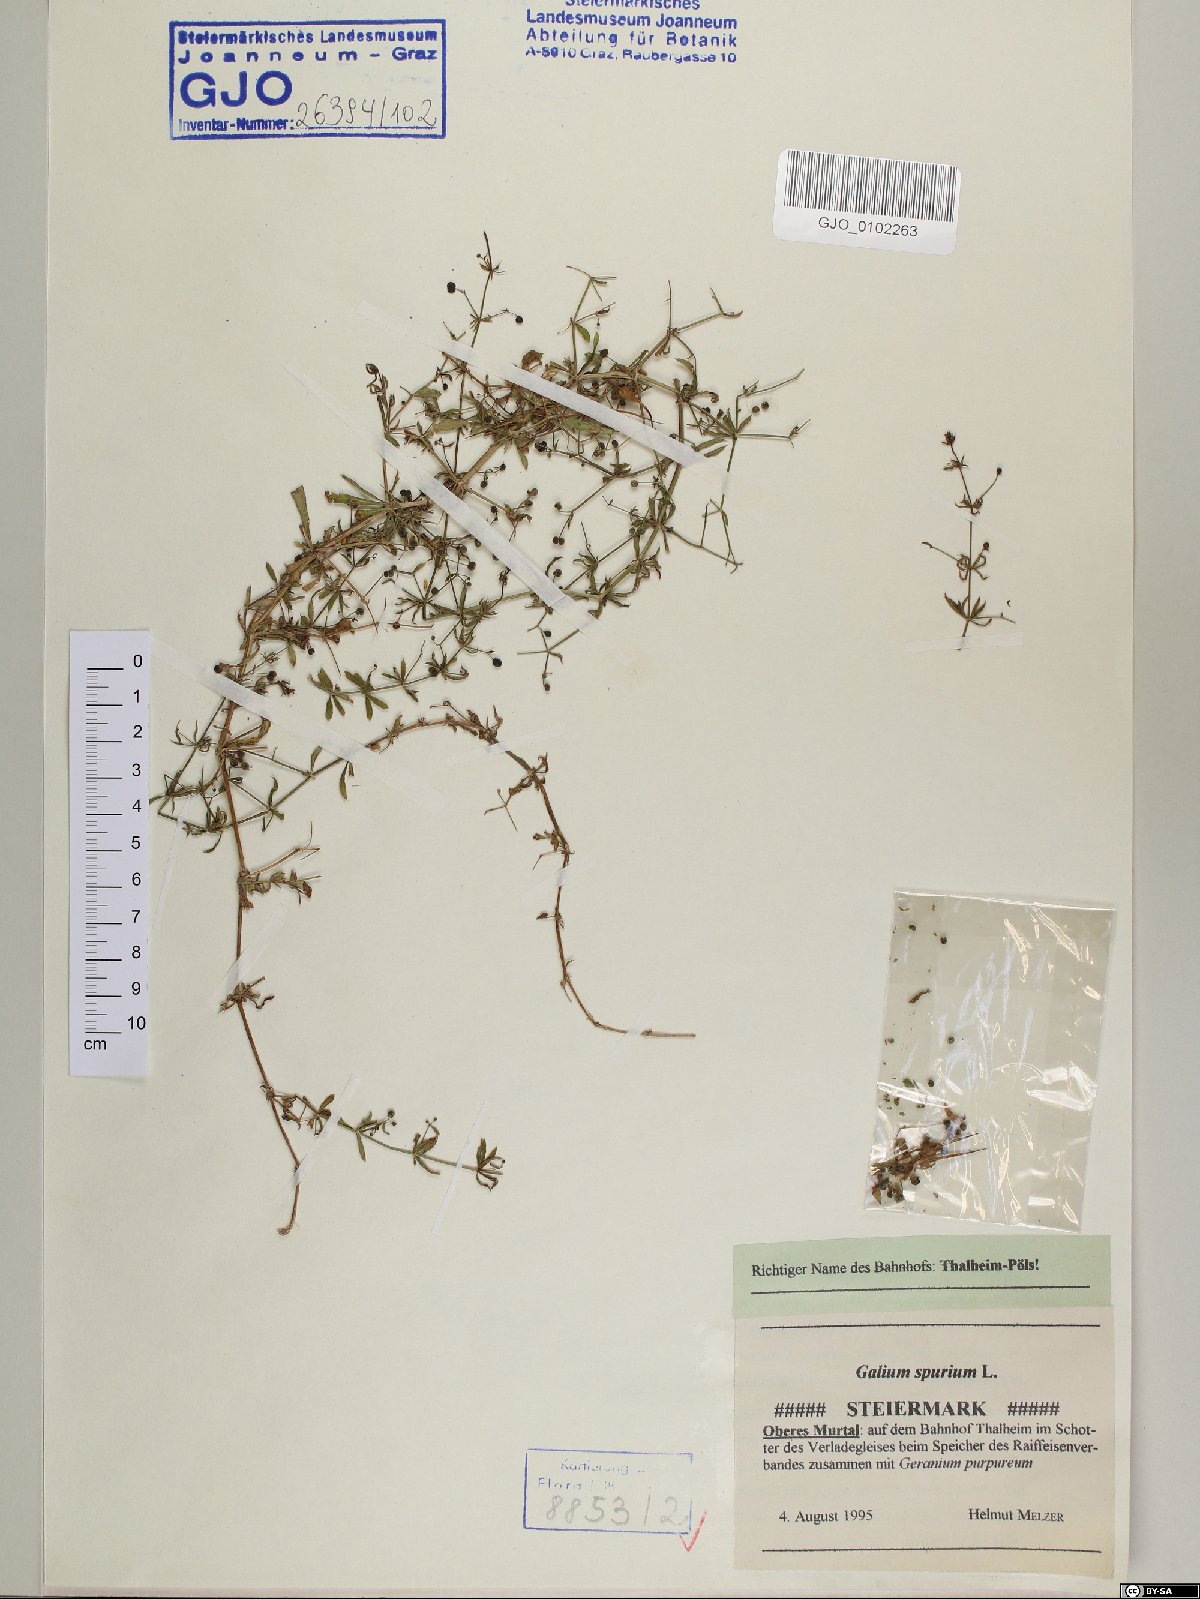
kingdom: Plantae
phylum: Tracheophyta
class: Magnoliopsida
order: Gentianales
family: Rubiaceae
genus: Galium
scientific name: Galium spurium
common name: False cleavers
